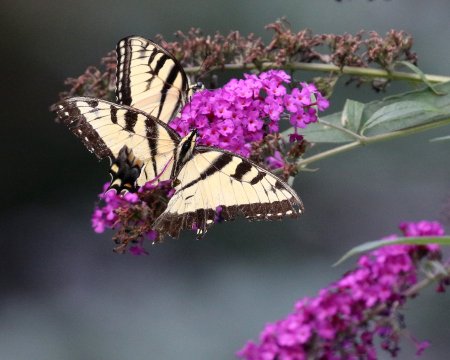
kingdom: Animalia
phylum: Arthropoda
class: Insecta
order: Lepidoptera
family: Papilionidae
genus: Pterourus
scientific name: Pterourus glaucus
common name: Eastern Tiger Swallowtail
